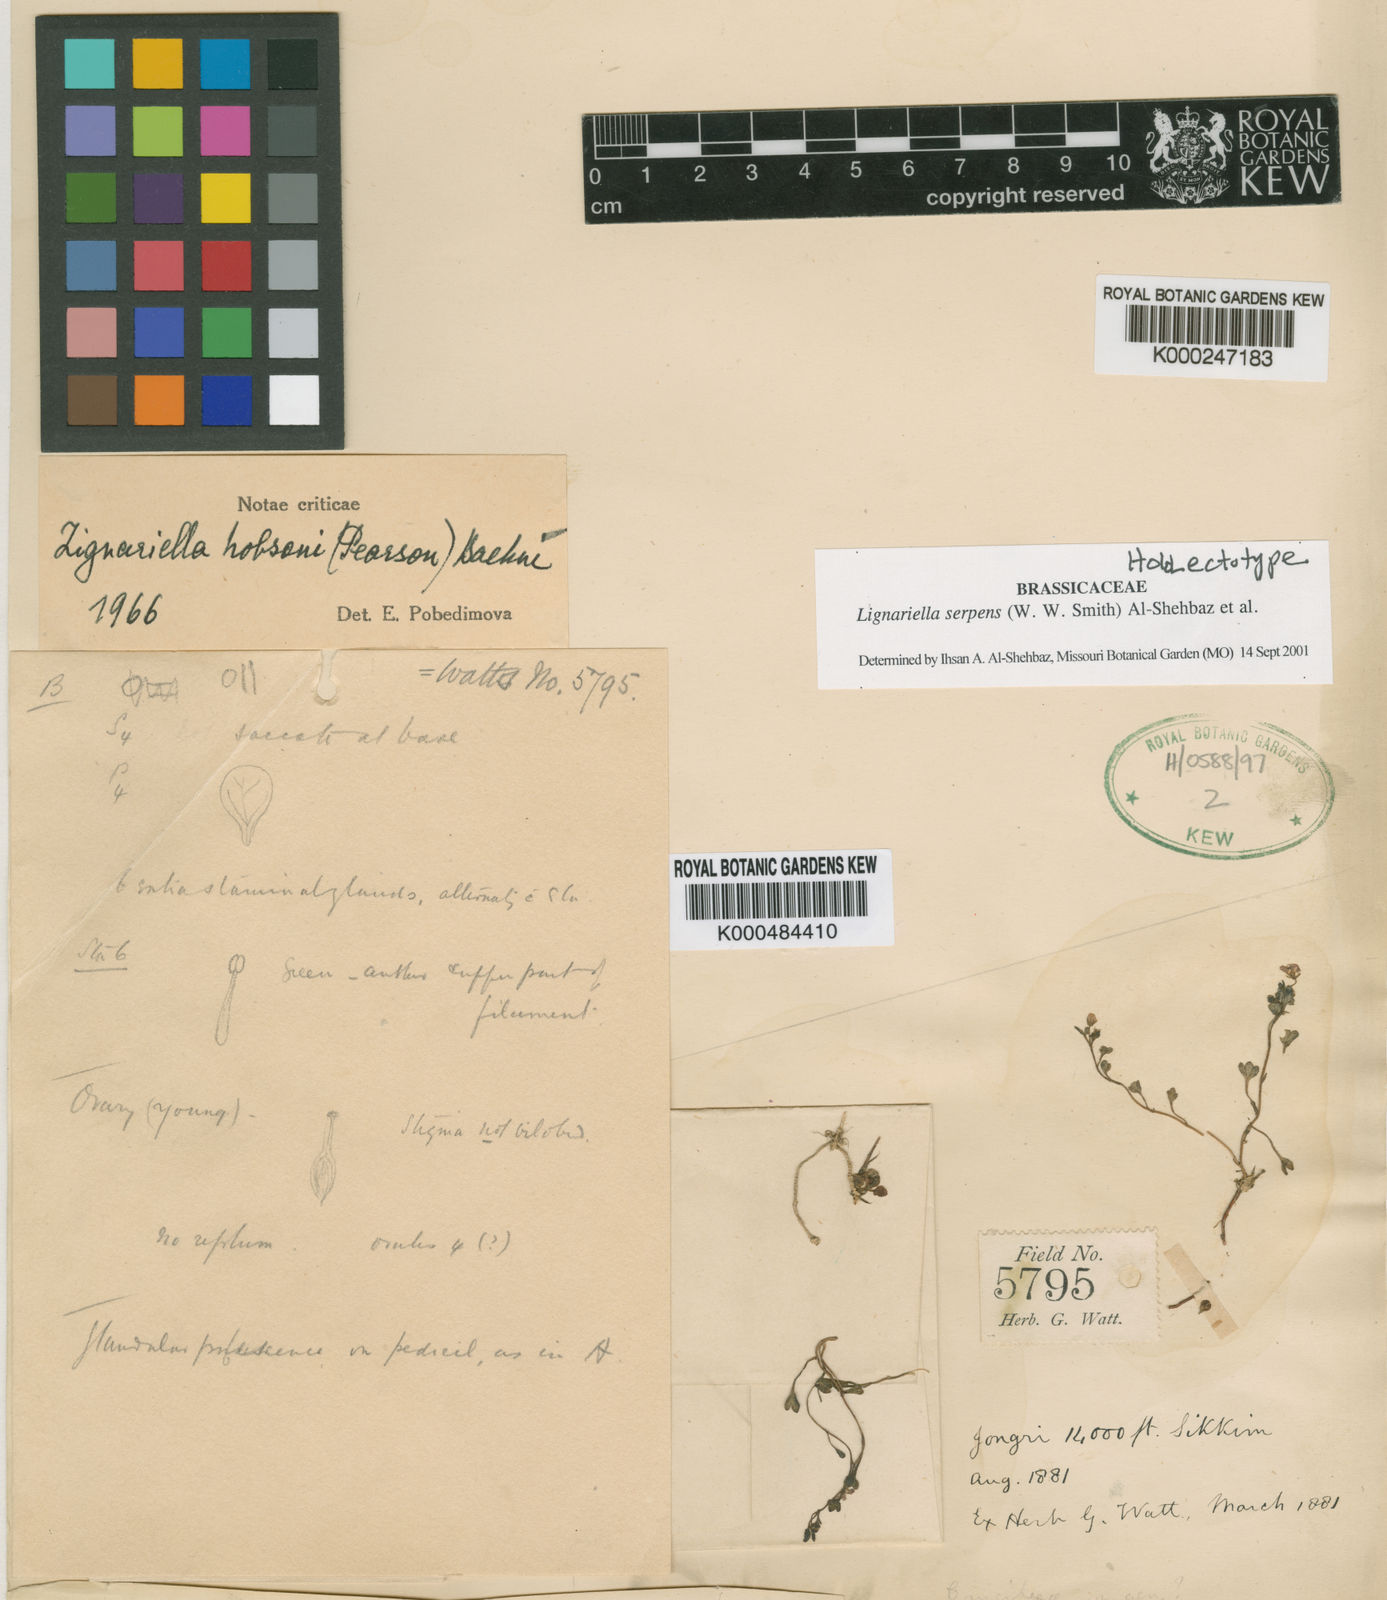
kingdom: Plantae
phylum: Tracheophyta
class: Magnoliopsida
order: Brassicales
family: Brassicaceae
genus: Aphragmus
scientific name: Aphragmus
